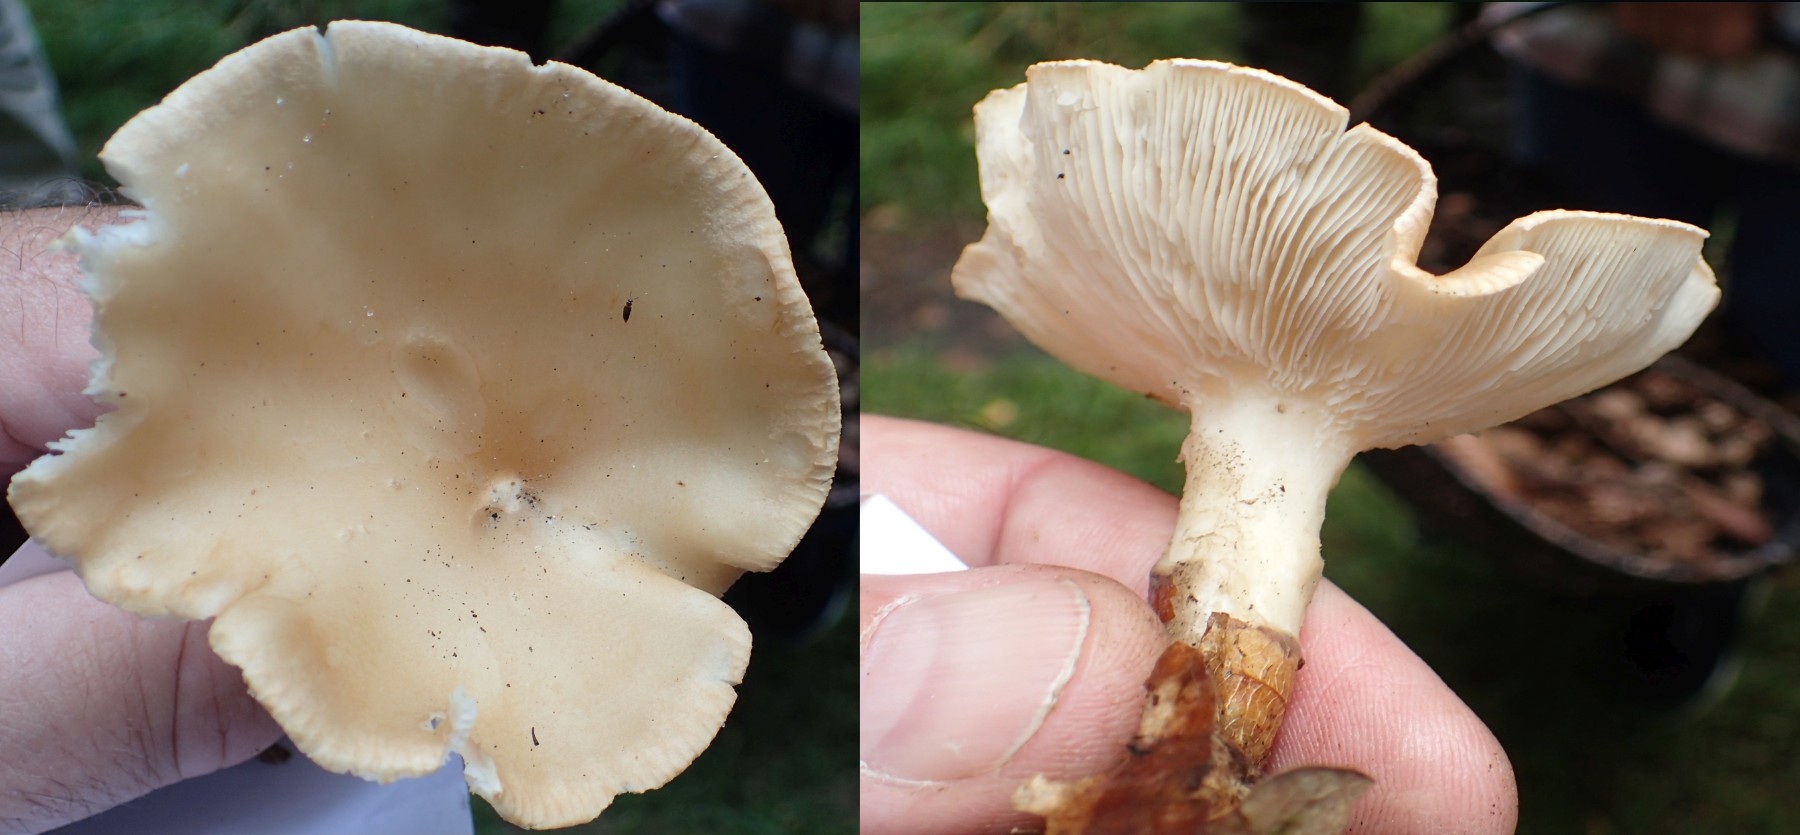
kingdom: Fungi
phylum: Basidiomycota
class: Agaricomycetes
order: Agaricales
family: Tricholomataceae
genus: Infundibulicybe
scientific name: Infundibulicybe gibba
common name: almindelig tragthat
